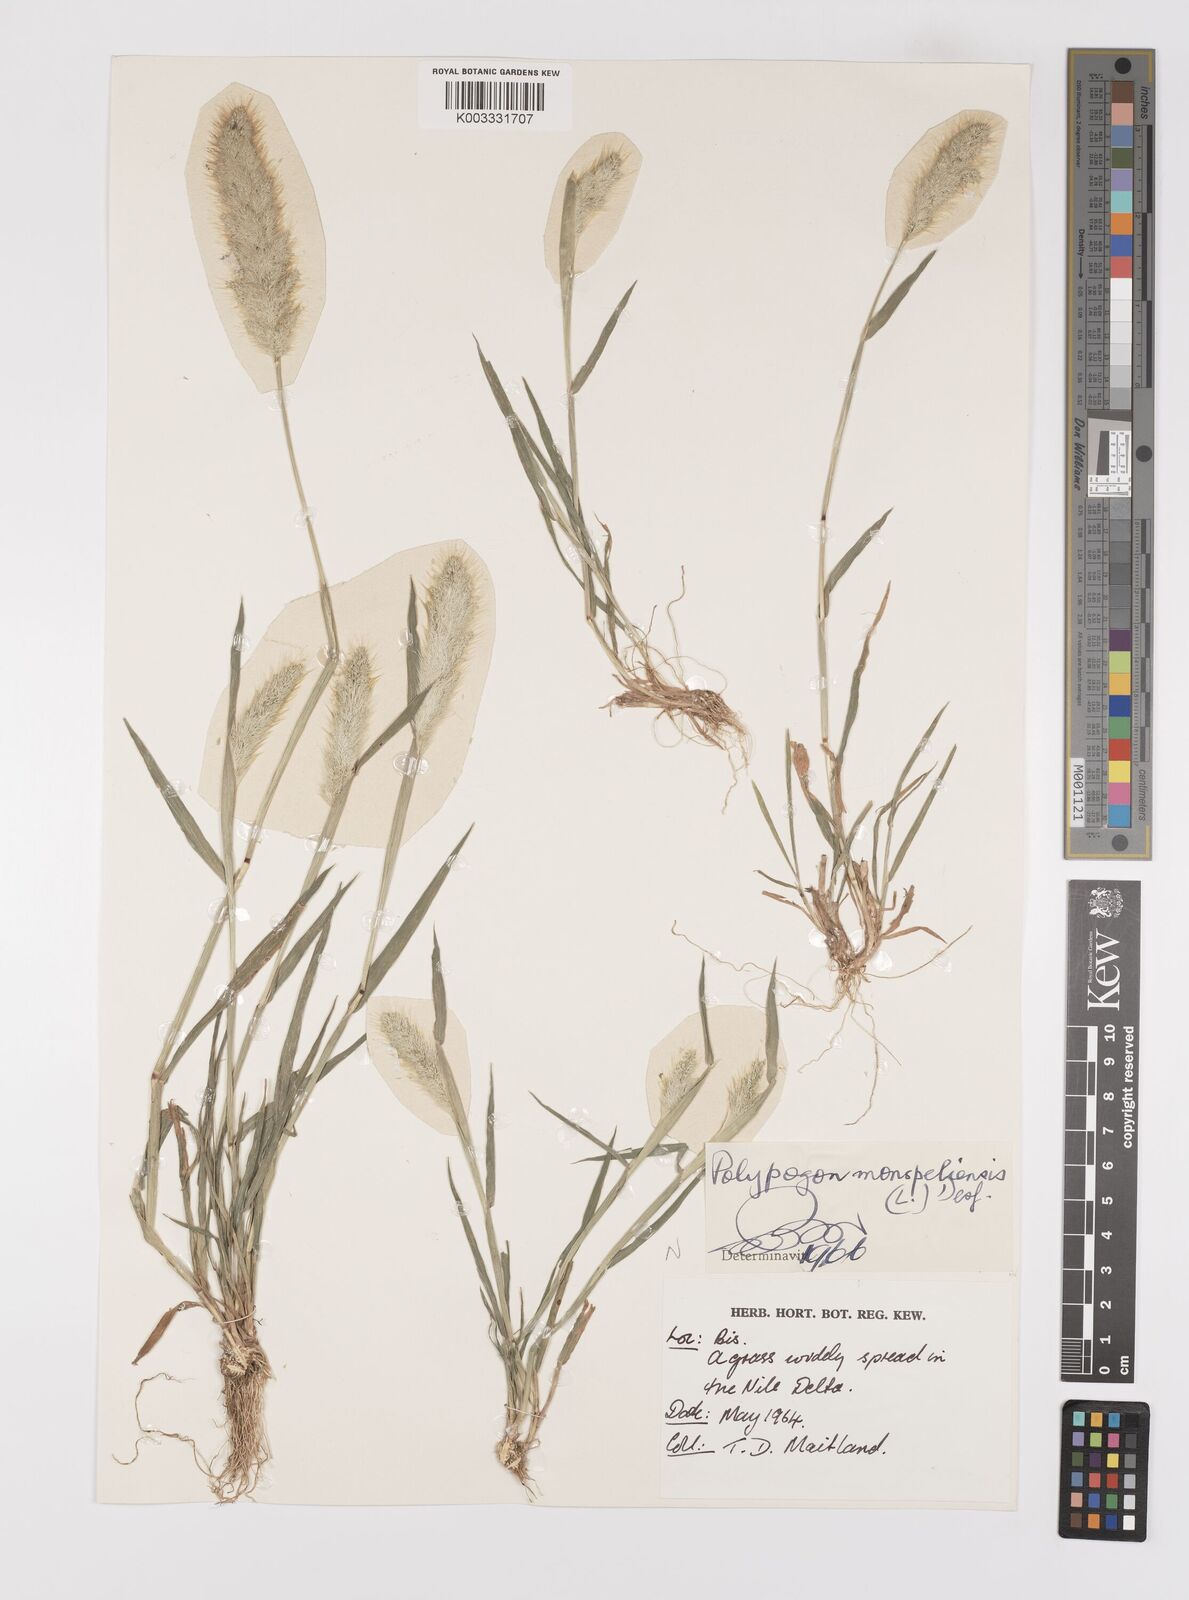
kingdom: Plantae
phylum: Tracheophyta
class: Liliopsida
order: Poales
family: Poaceae
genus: Polypogon
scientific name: Polypogon monspeliensis
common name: Annual rabbitsfoot grass
